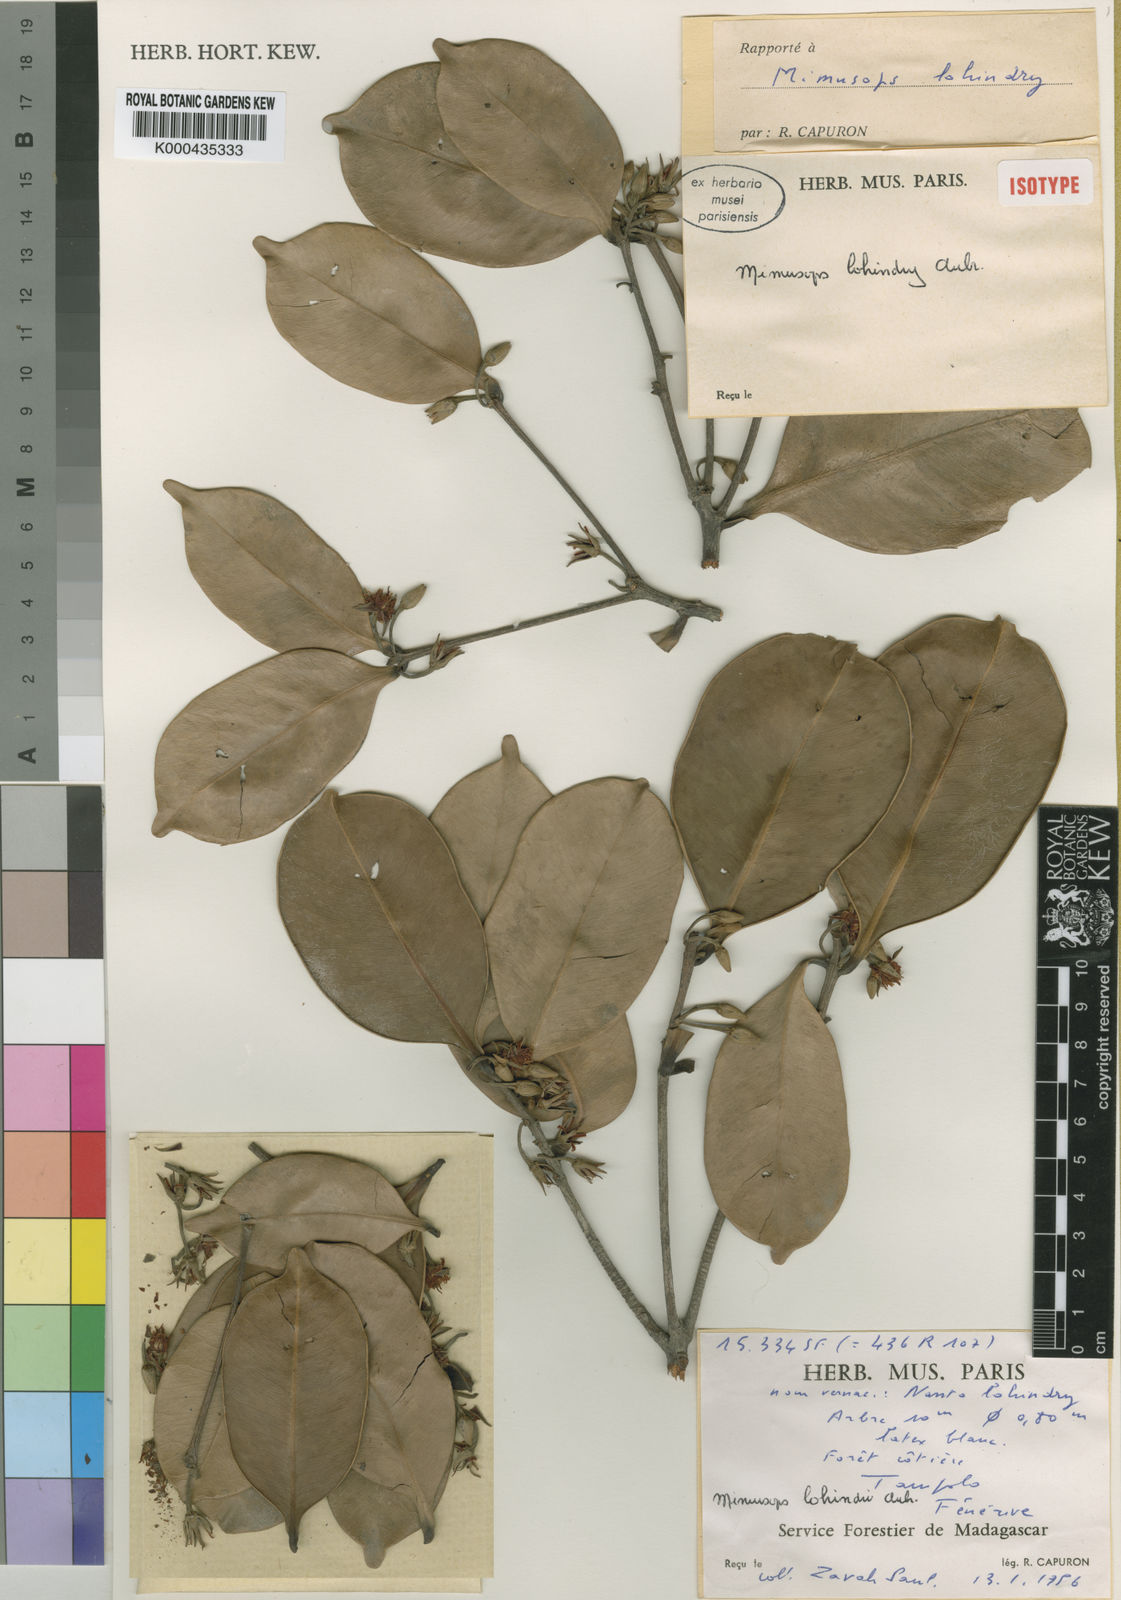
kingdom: Plantae
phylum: Tracheophyta
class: Magnoliopsida
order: Ericales
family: Sapotaceae
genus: Mimusops
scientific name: Mimusops
